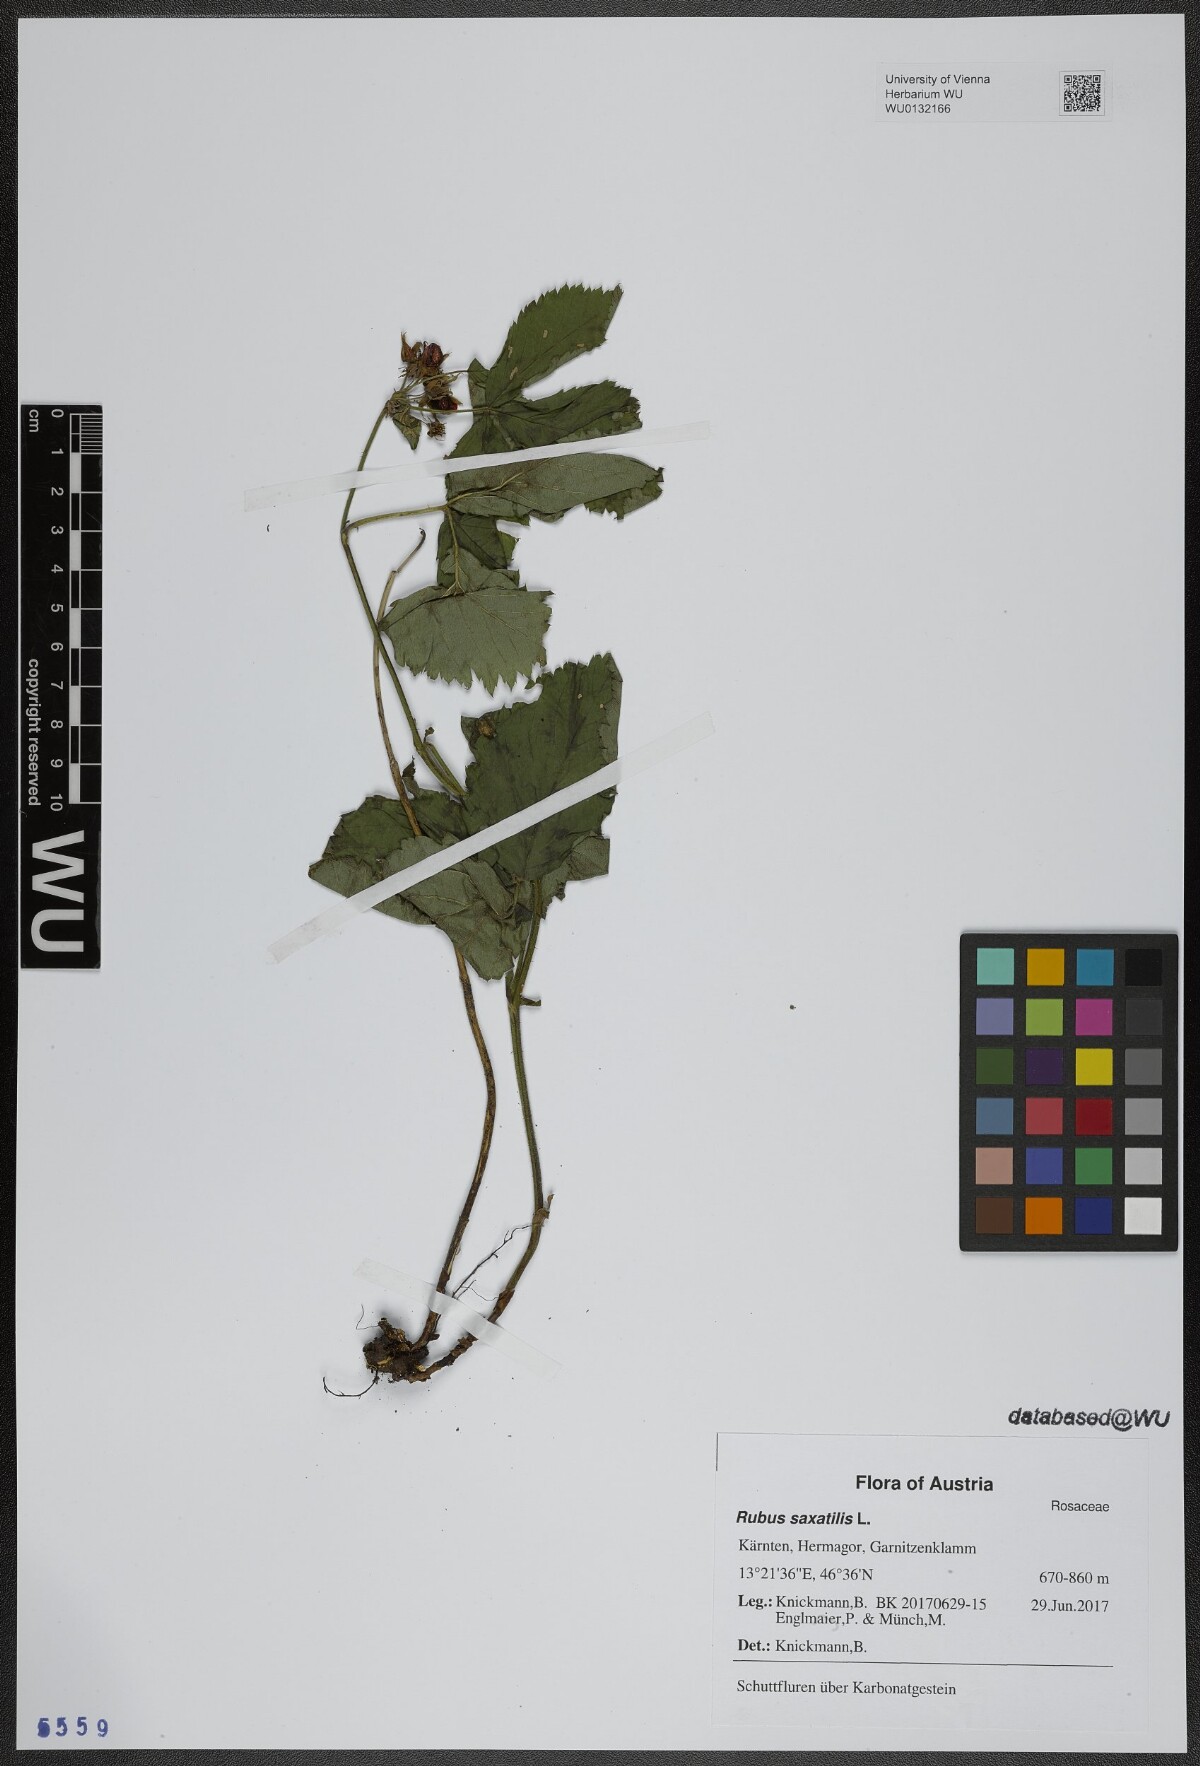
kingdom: Plantae
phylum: Tracheophyta
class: Magnoliopsida
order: Rosales
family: Rosaceae
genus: Rubus
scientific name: Rubus saxatilis
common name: Stone bramble
